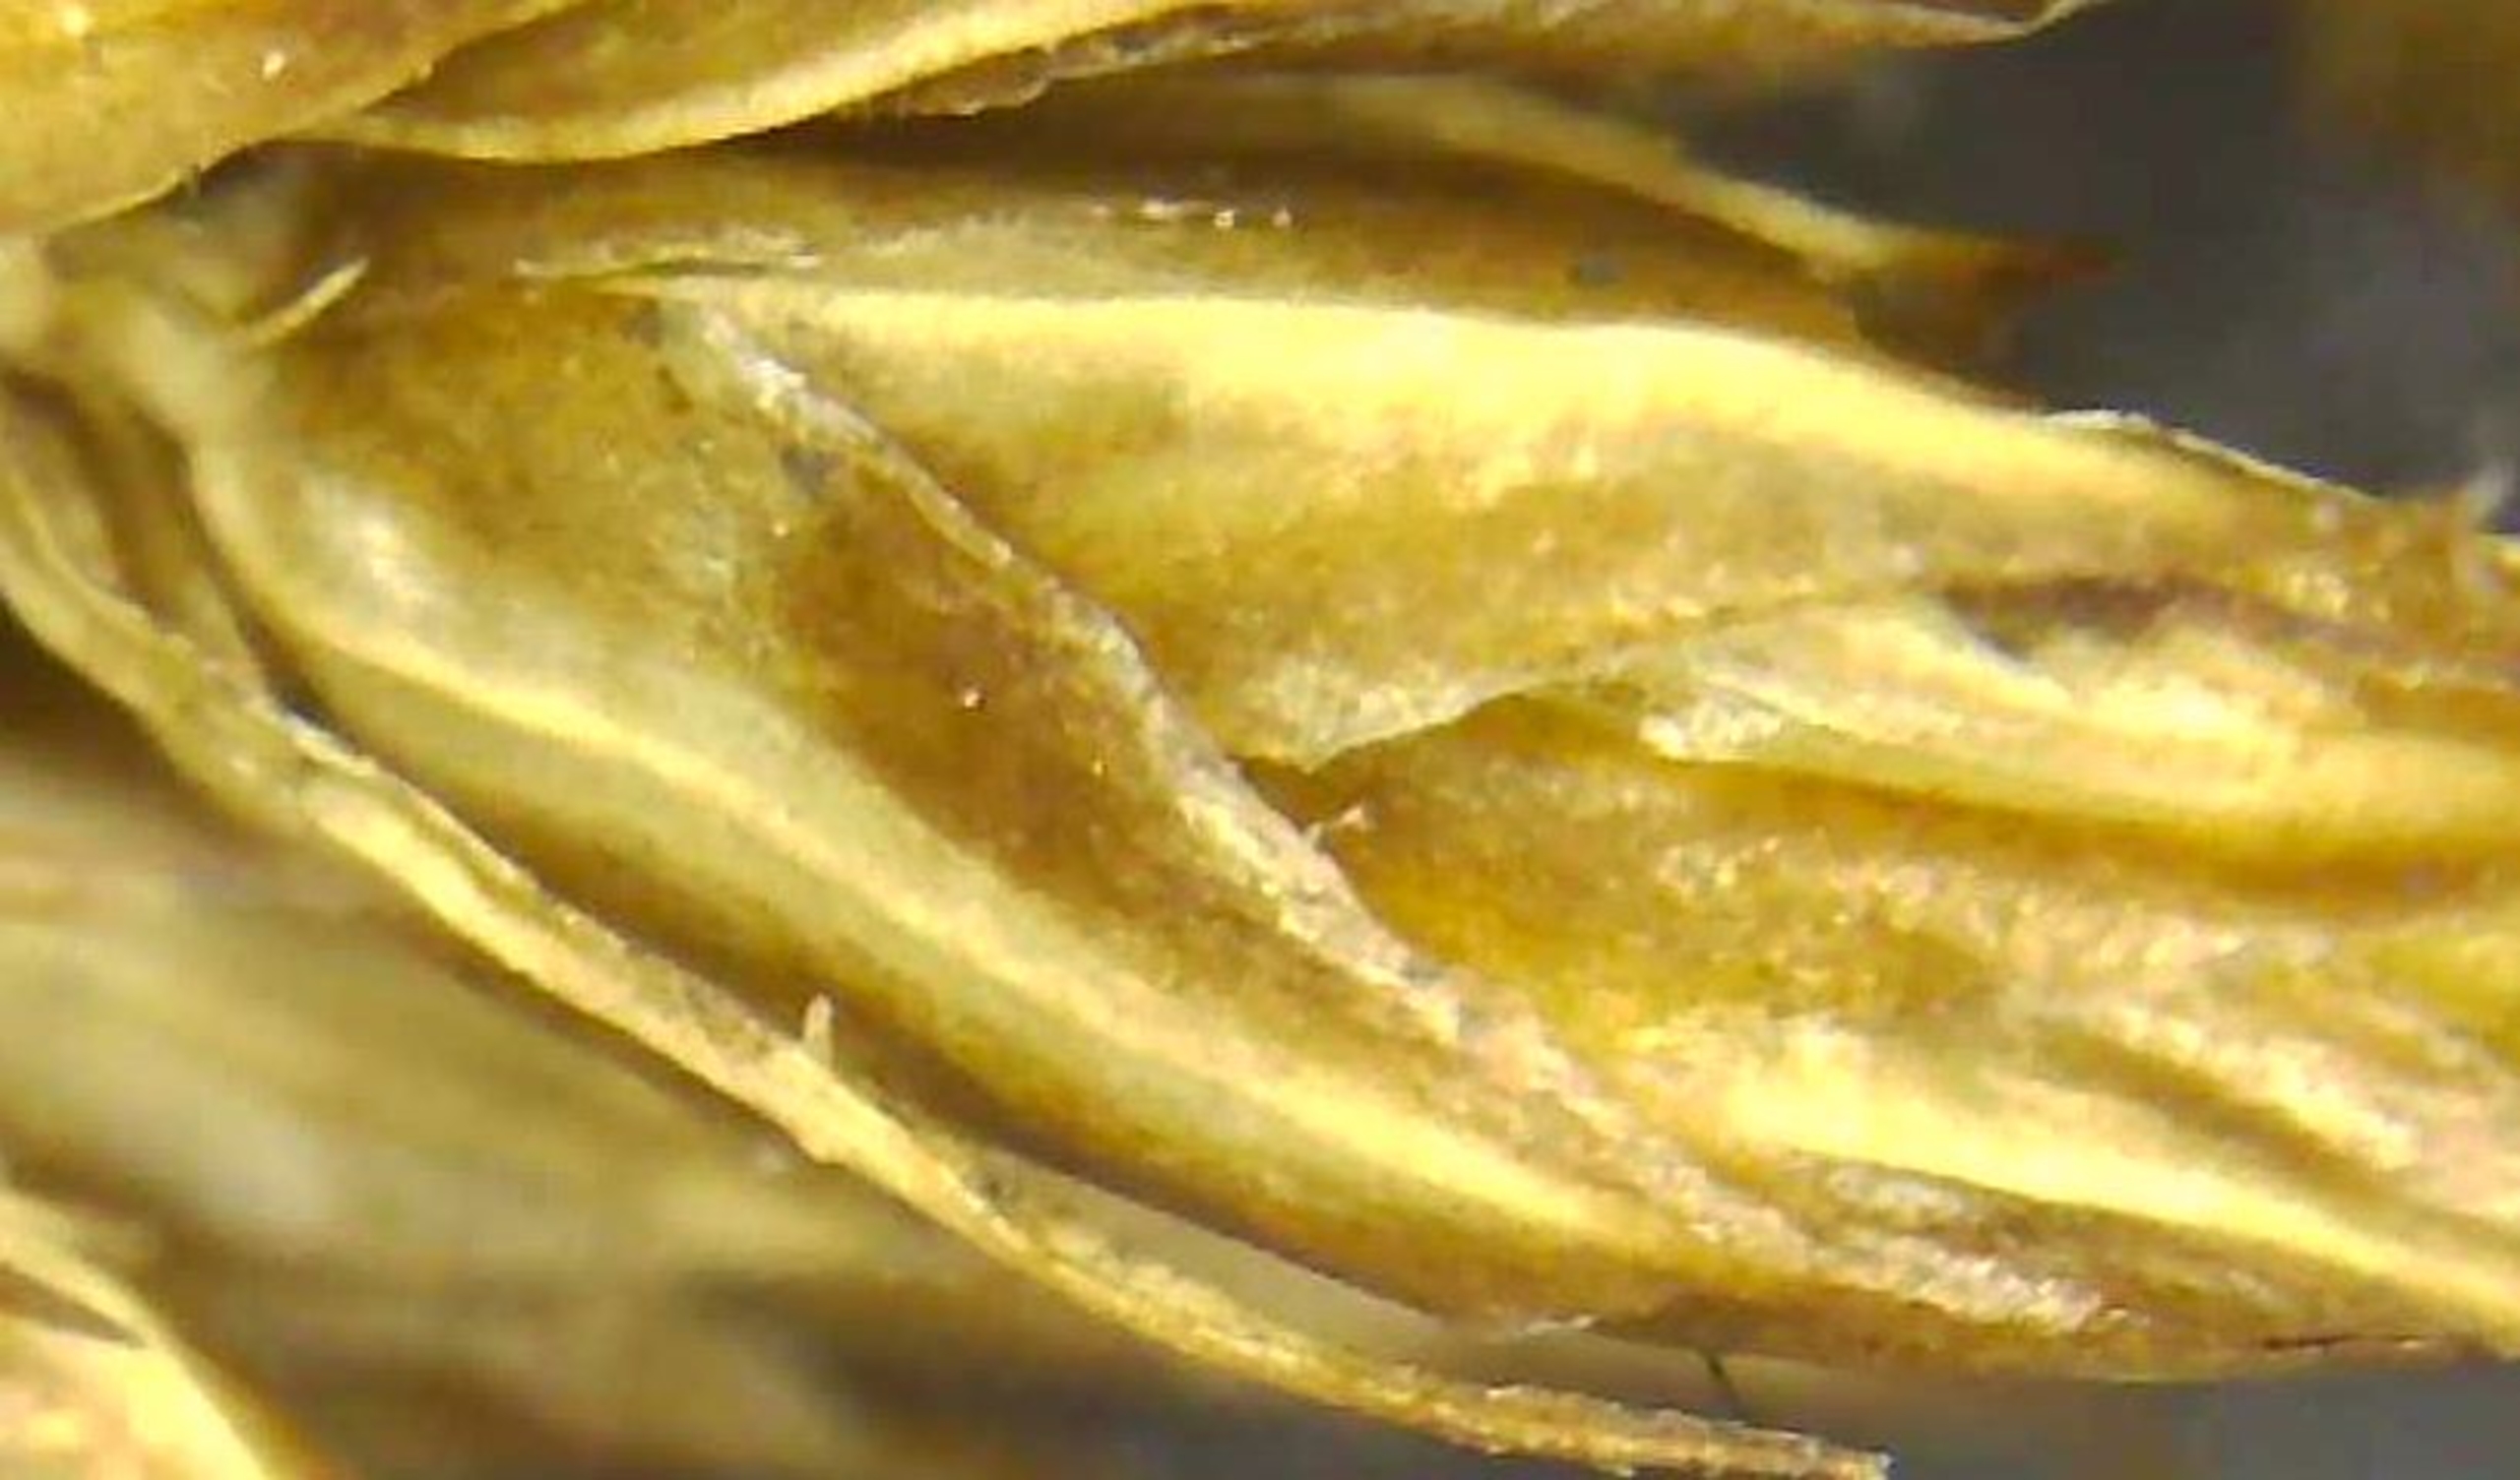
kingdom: Plantae
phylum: Tracheophyta
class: Liliopsida
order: Poales
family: Cyperaceae
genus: Carex
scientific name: Carex vulpina
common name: Ræve-star
